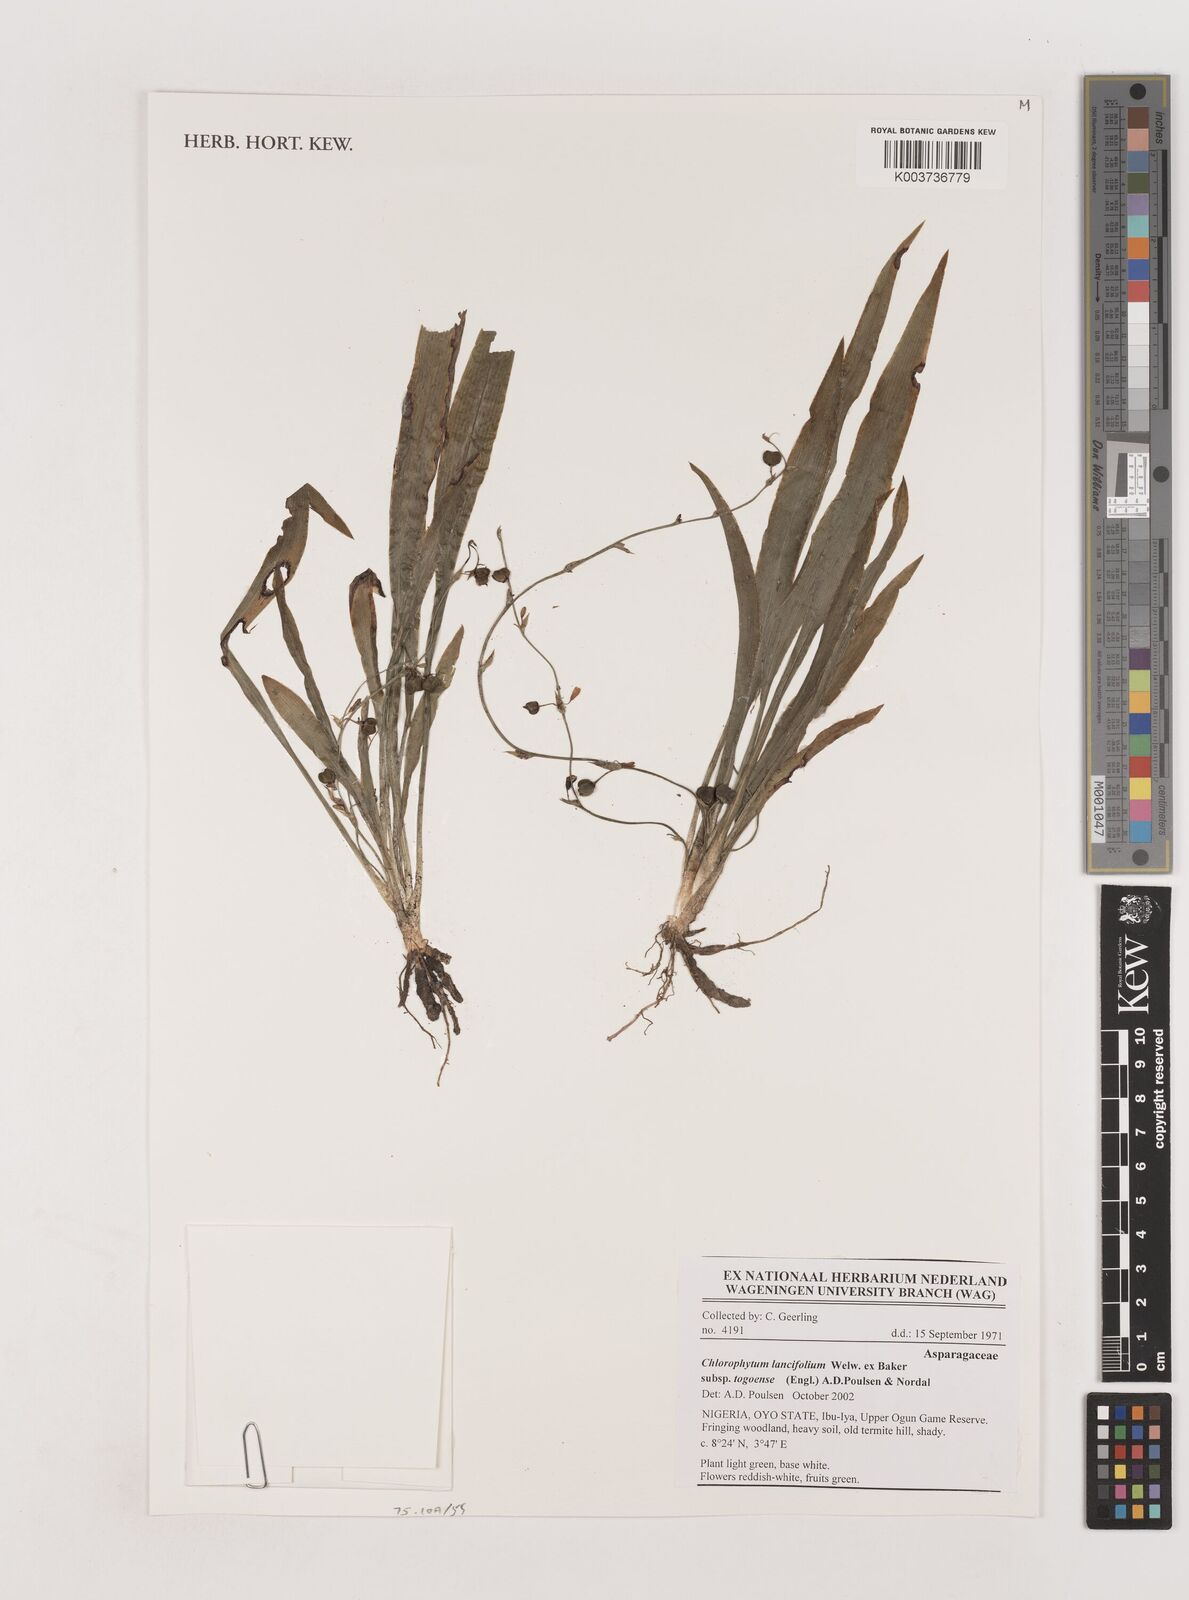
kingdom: Plantae
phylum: Tracheophyta
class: Liliopsida
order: Asparagales
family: Asparagaceae
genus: Chlorophytum
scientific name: Chlorophytum lancifolium
